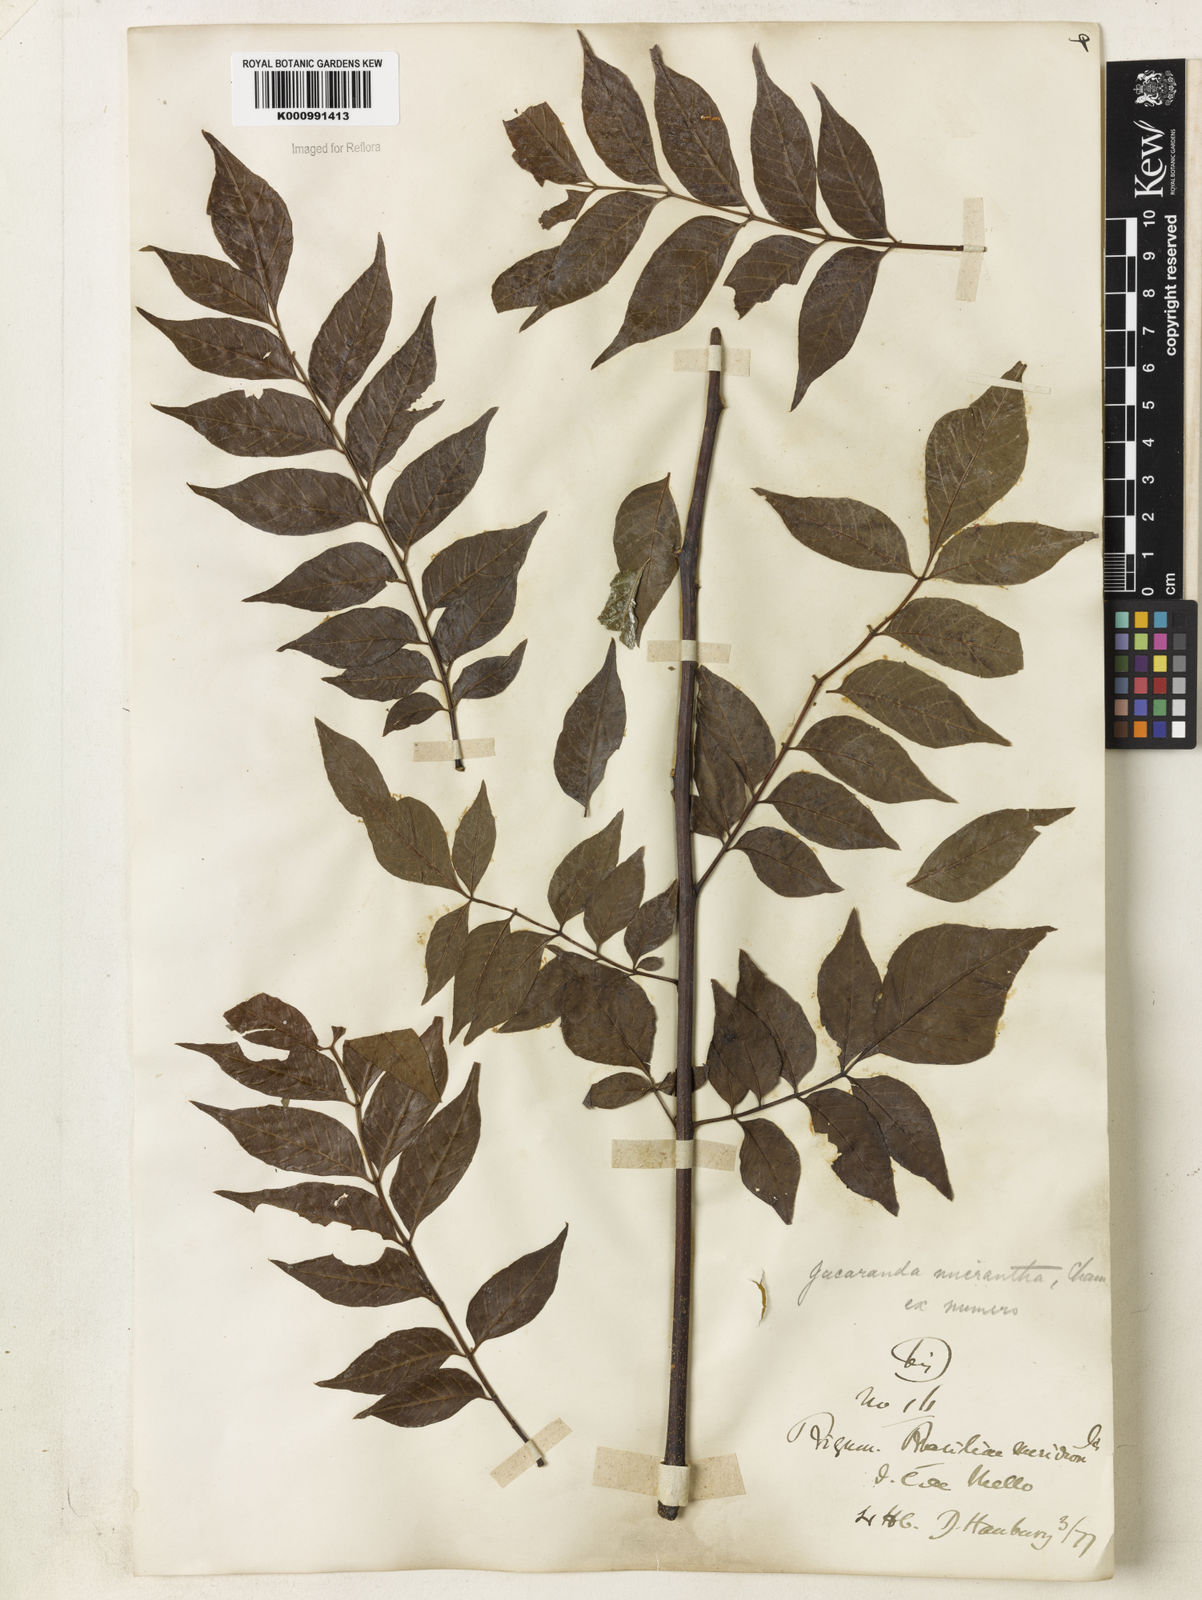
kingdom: Plantae
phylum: Tracheophyta
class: Magnoliopsida
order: Lamiales
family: Bignoniaceae
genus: Jacaranda
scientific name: Jacaranda micrantha
